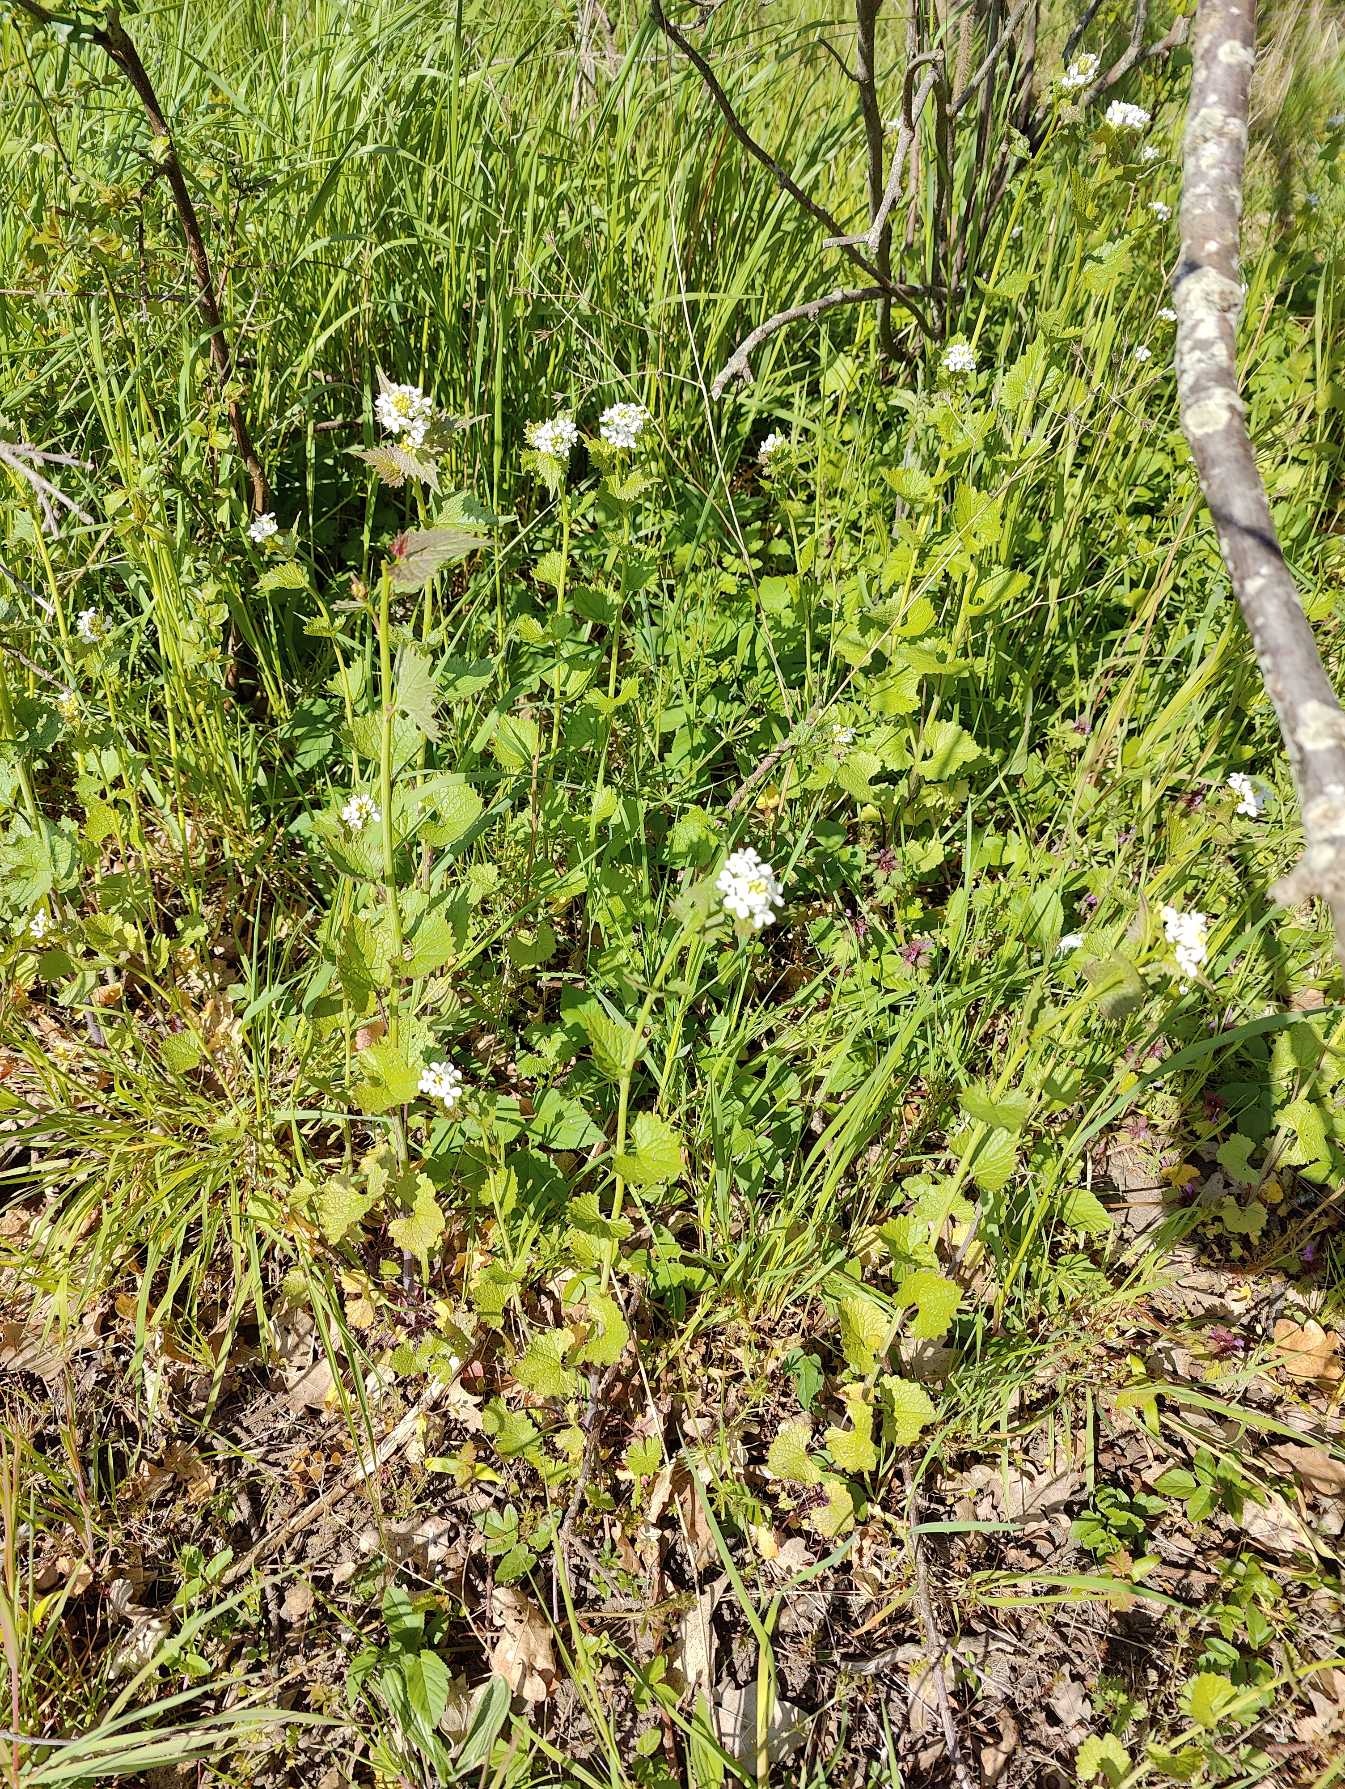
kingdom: Plantae
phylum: Tracheophyta
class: Magnoliopsida
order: Brassicales
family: Brassicaceae
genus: Alliaria
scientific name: Alliaria petiolata
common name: Løgkarse
